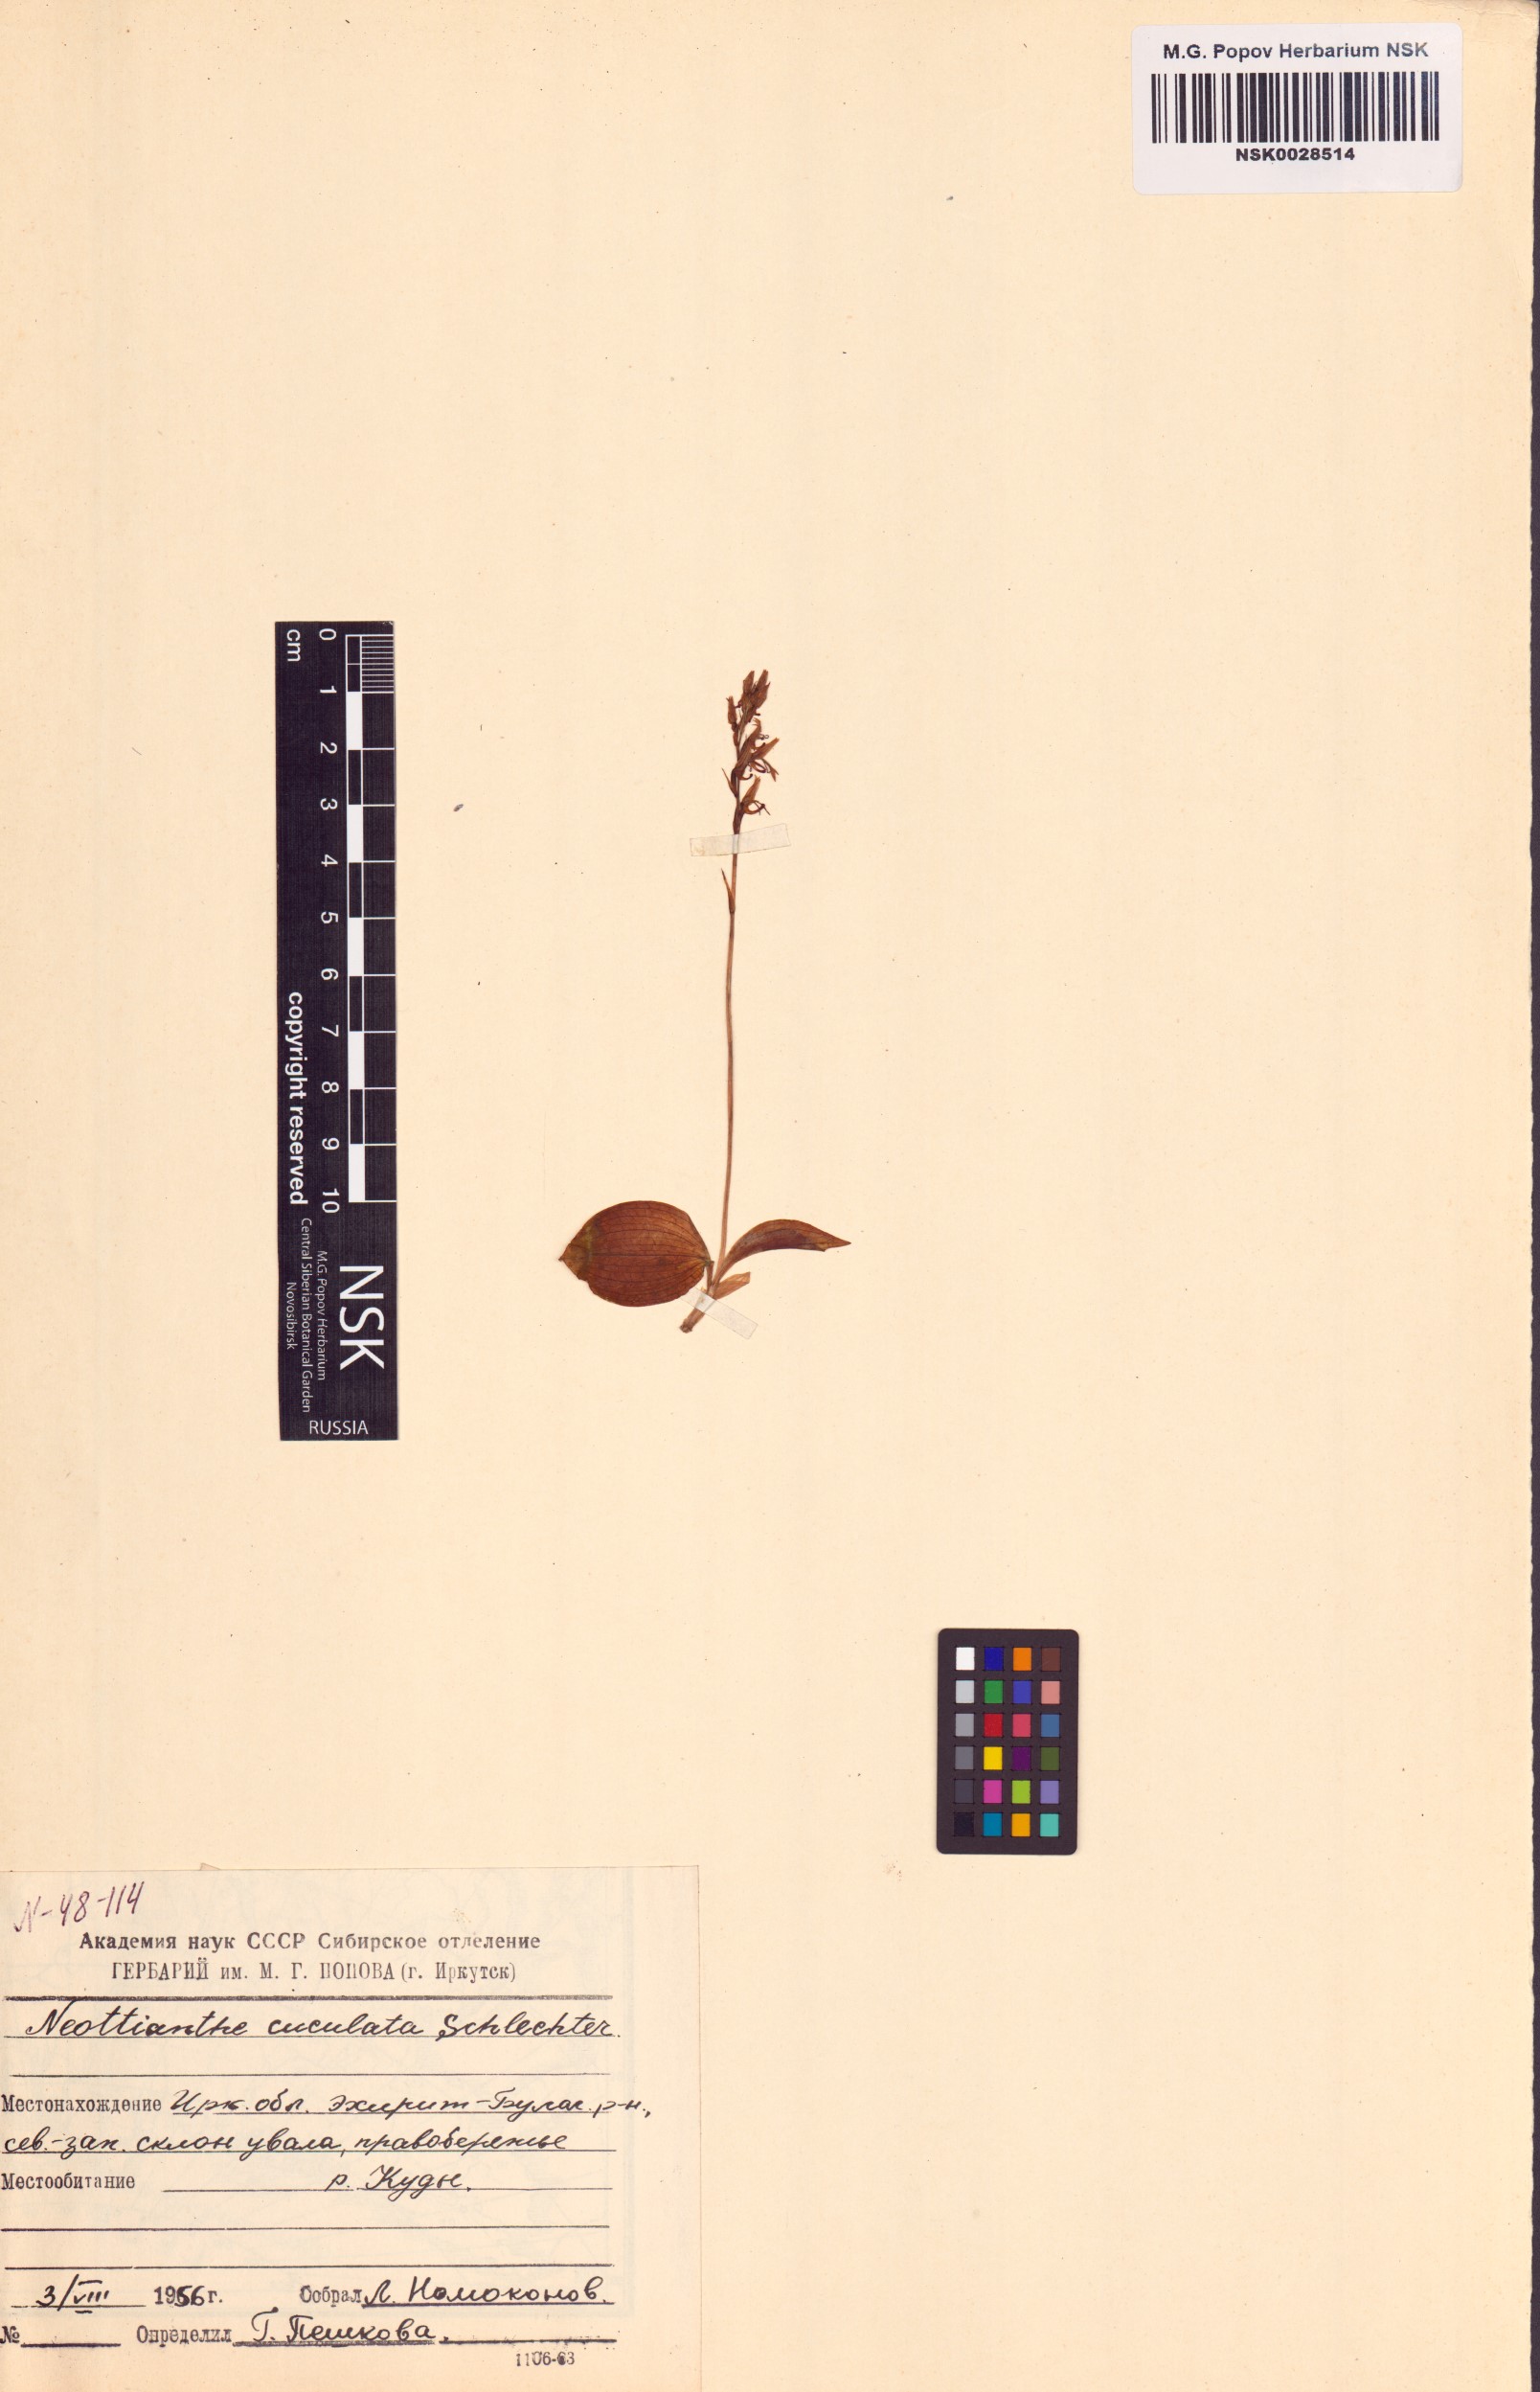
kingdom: Plantae
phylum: Tracheophyta
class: Liliopsida
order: Asparagales
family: Orchidaceae
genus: Hemipilia
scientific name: Hemipilia cucullata
